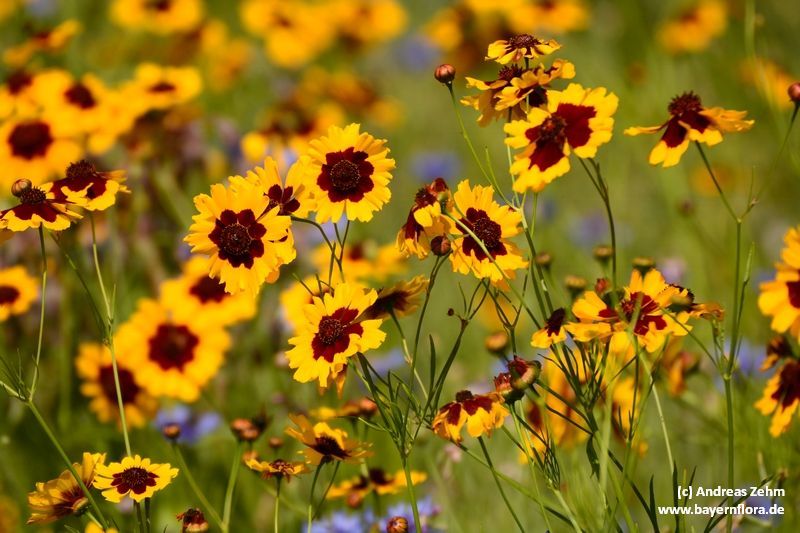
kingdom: Plantae
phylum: Tracheophyta
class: Magnoliopsida
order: Asterales
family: Asteraceae
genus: Coreopsis
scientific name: Coreopsis tinctoria
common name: Garden tickseed
